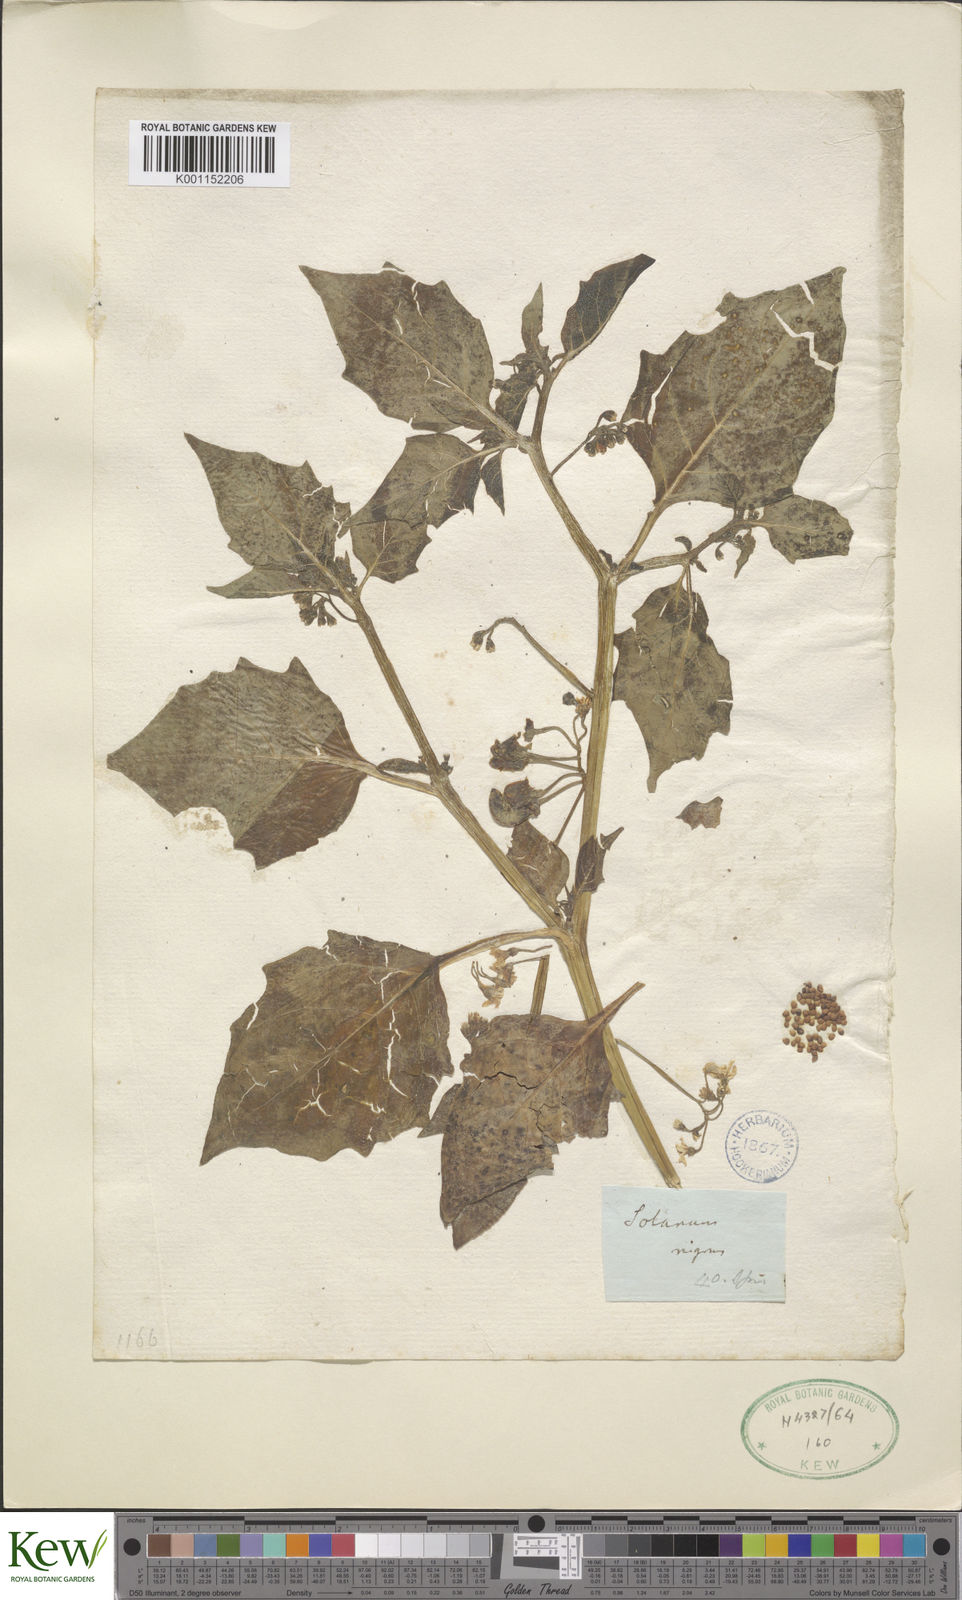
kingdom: Plantae
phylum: Tracheophyta
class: Magnoliopsida
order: Solanales
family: Solanaceae
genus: Solanum
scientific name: Solanum scabrum
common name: Garden-huckleberry
